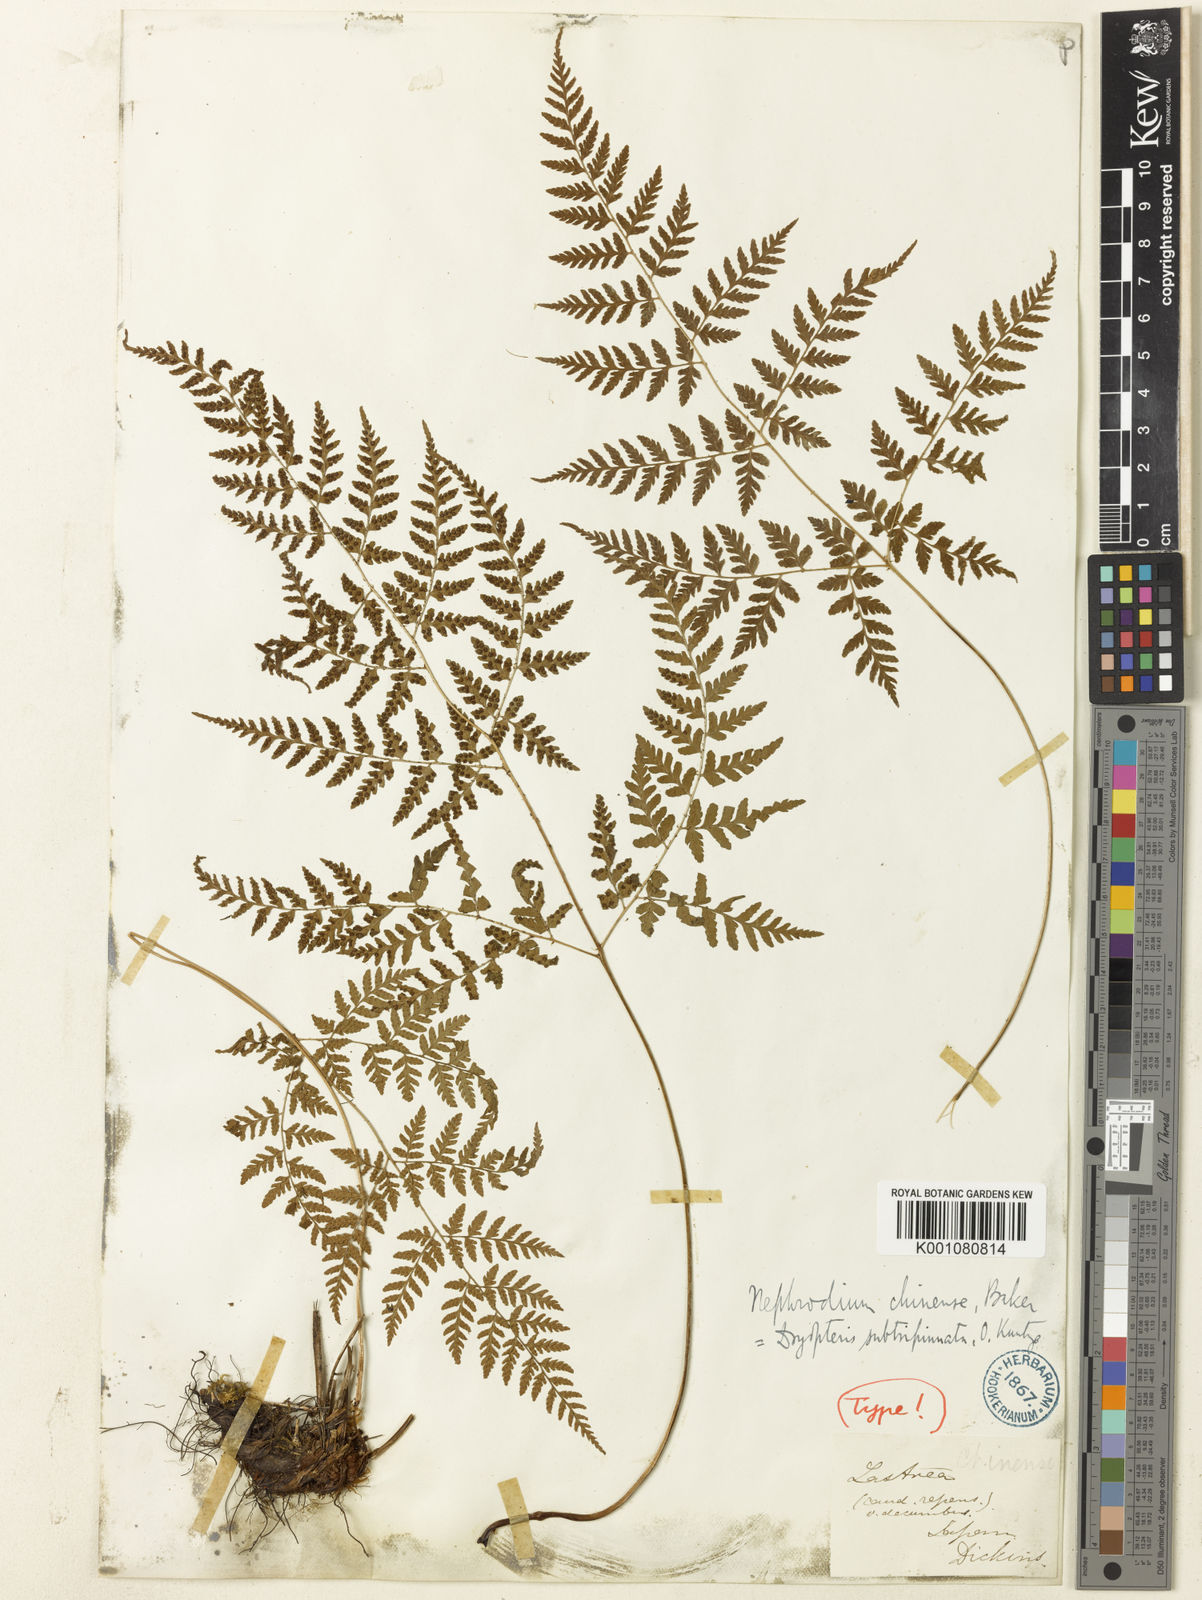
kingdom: Plantae
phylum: Tracheophyta
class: Polypodiopsida
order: Polypodiales
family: Dryopteridaceae
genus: Dryopteris
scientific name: Dryopteris chinensis
